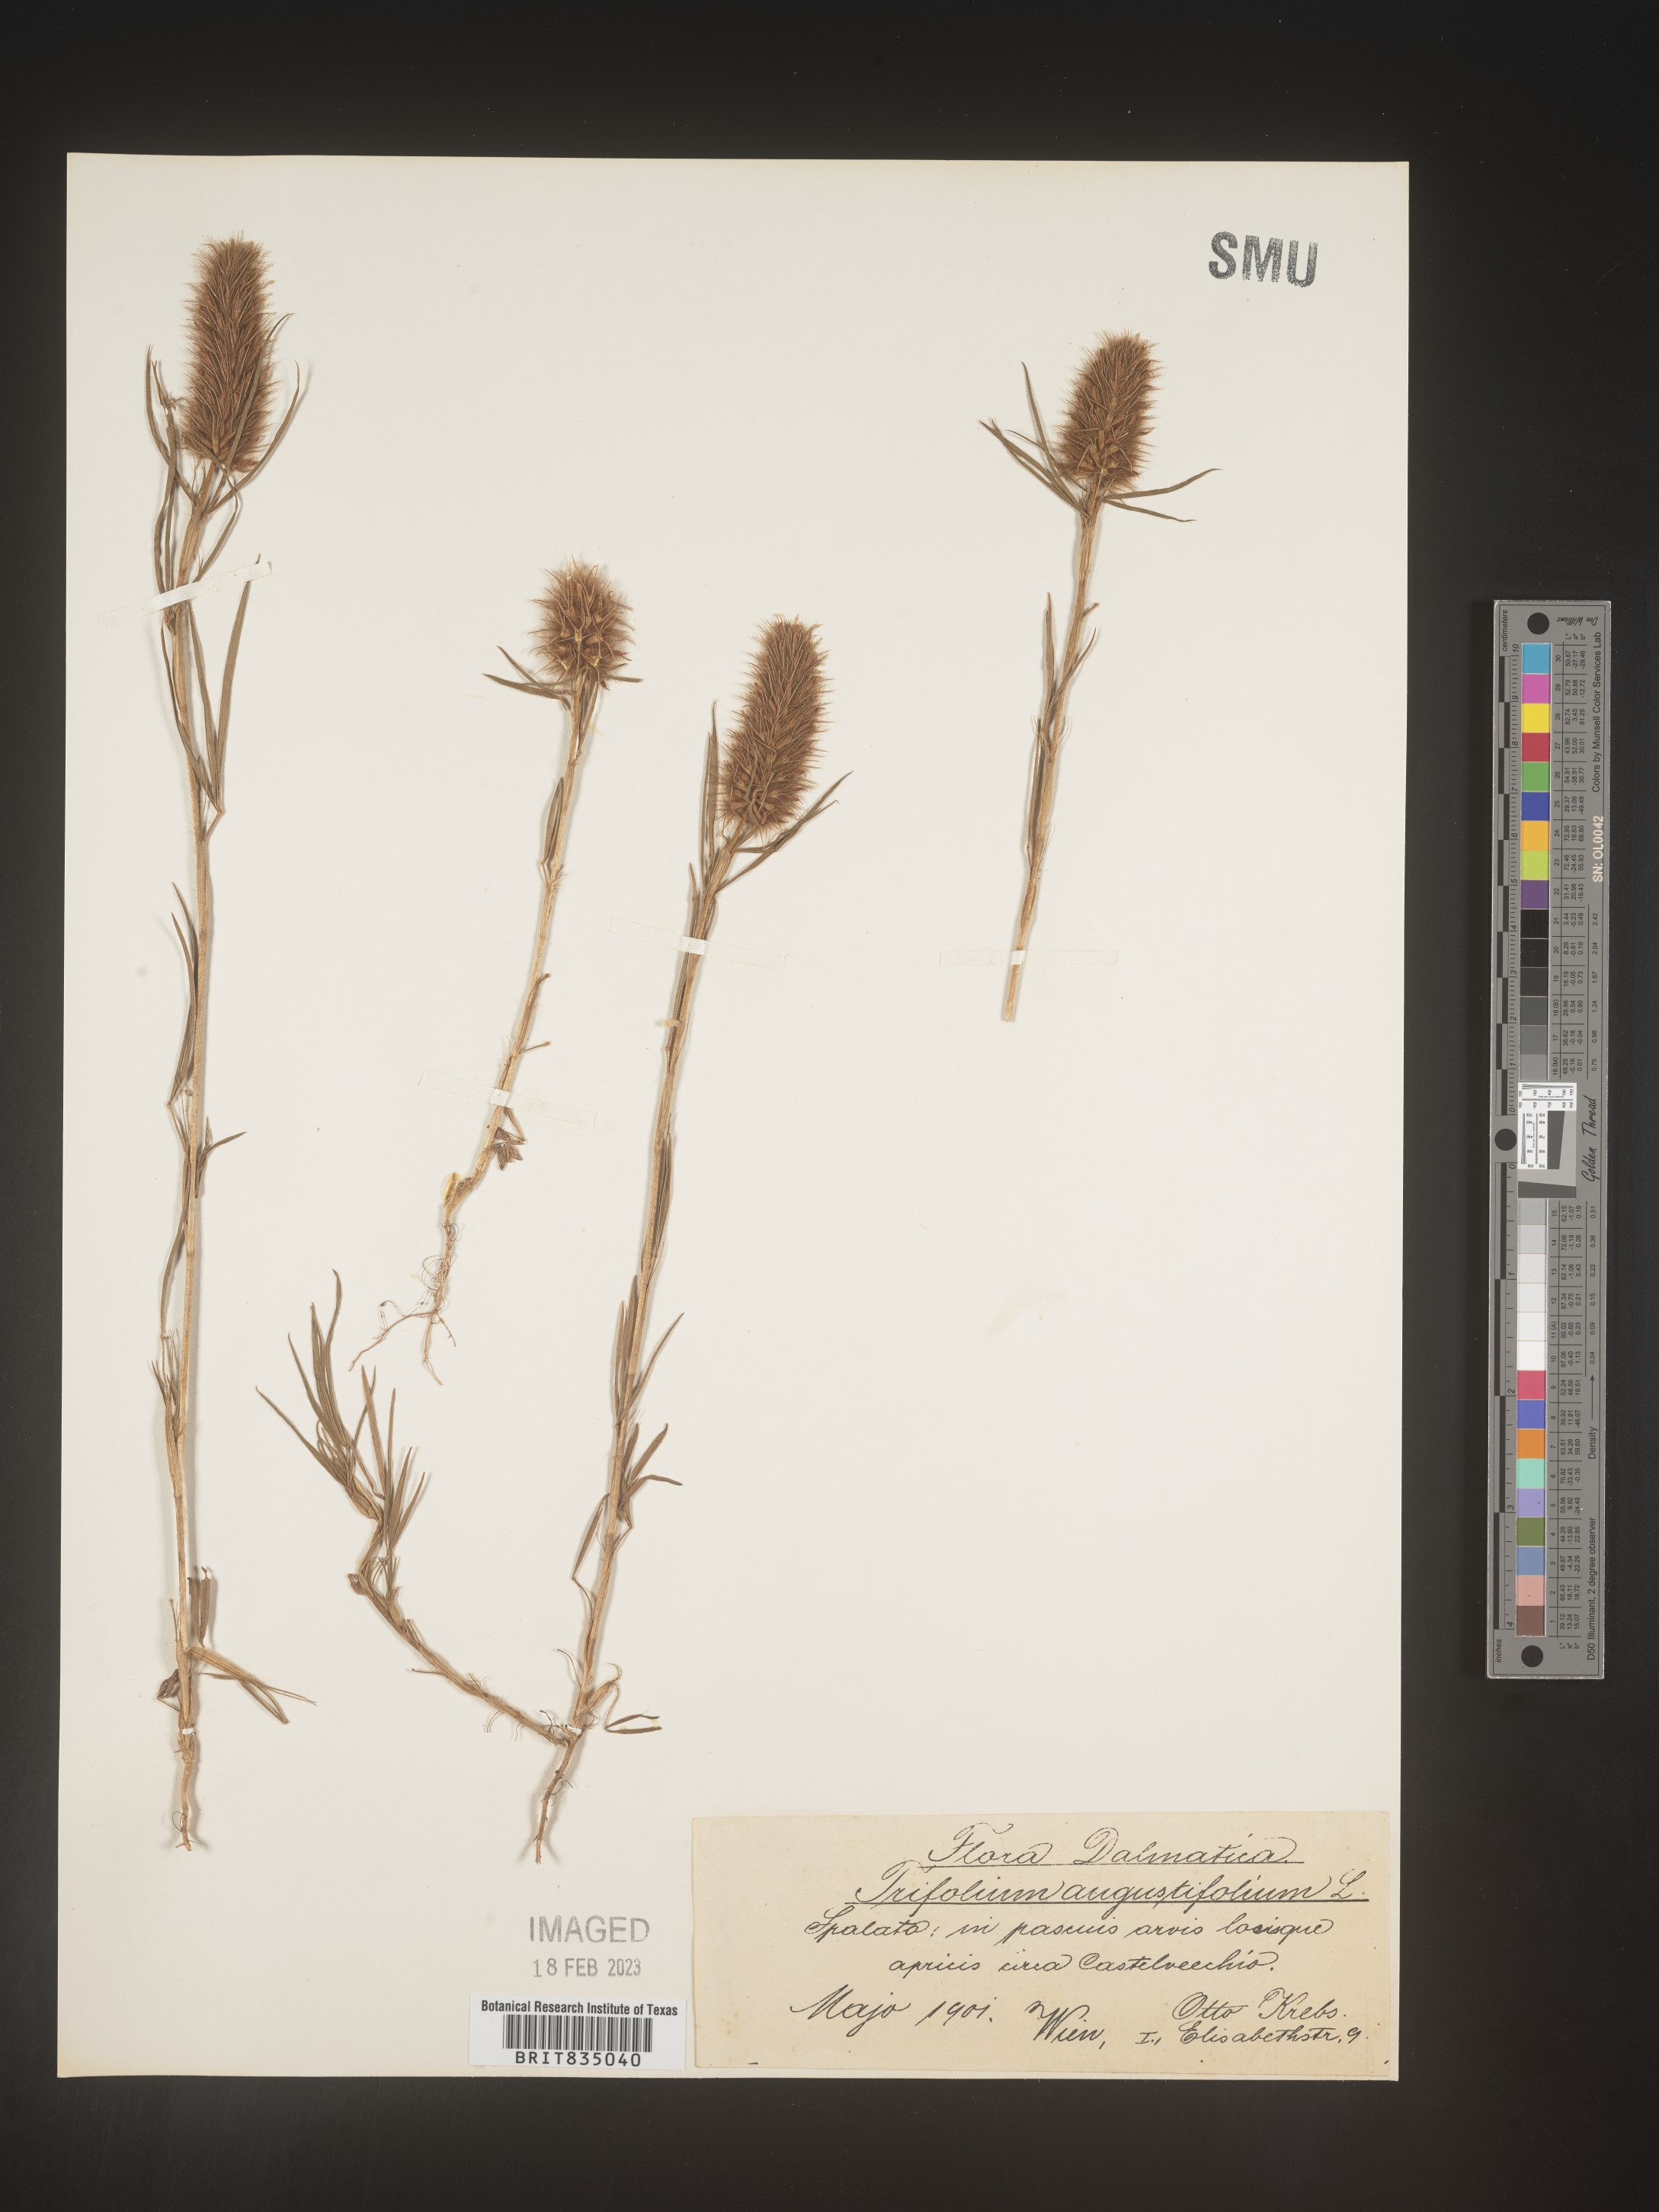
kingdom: Plantae
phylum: Tracheophyta
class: Magnoliopsida
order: Fabales
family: Fabaceae
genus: Trifolium
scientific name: Trifolium
